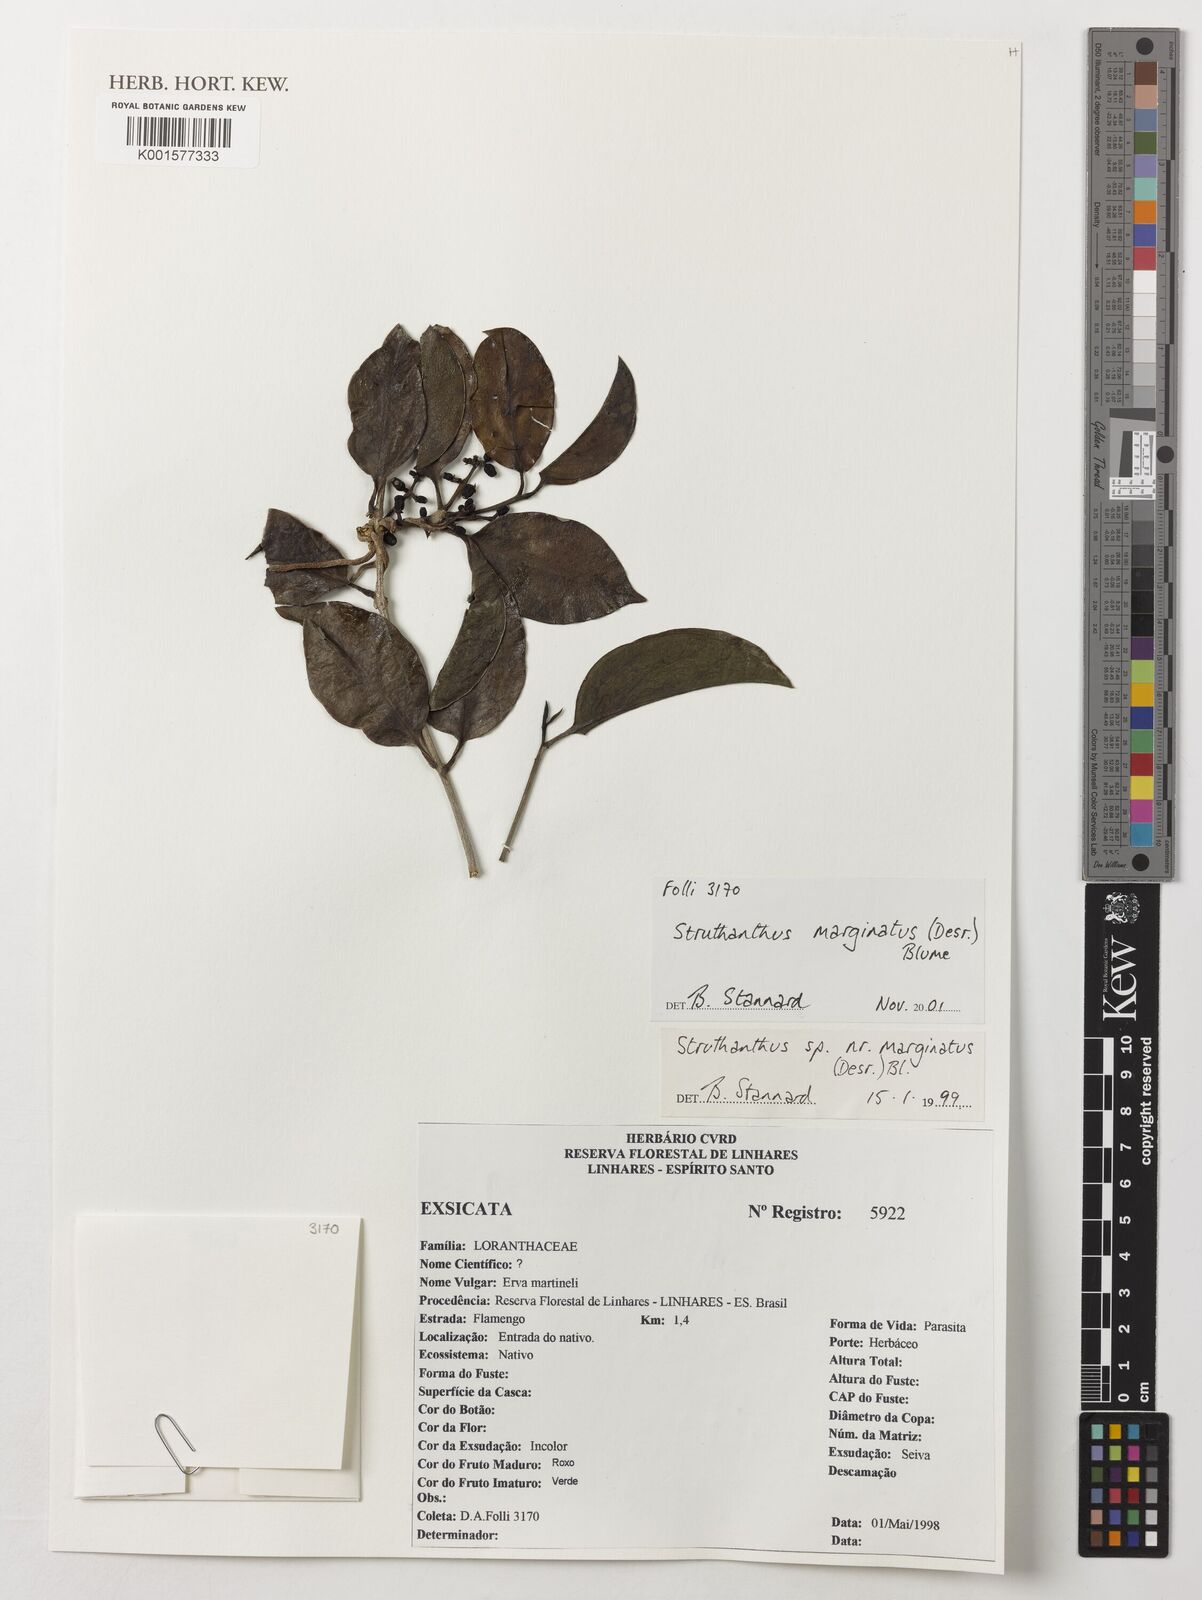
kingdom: Plantae
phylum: Tracheophyta
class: Magnoliopsida
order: Santalales
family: Loranthaceae
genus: Struthanthus
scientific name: Struthanthus marginatus
